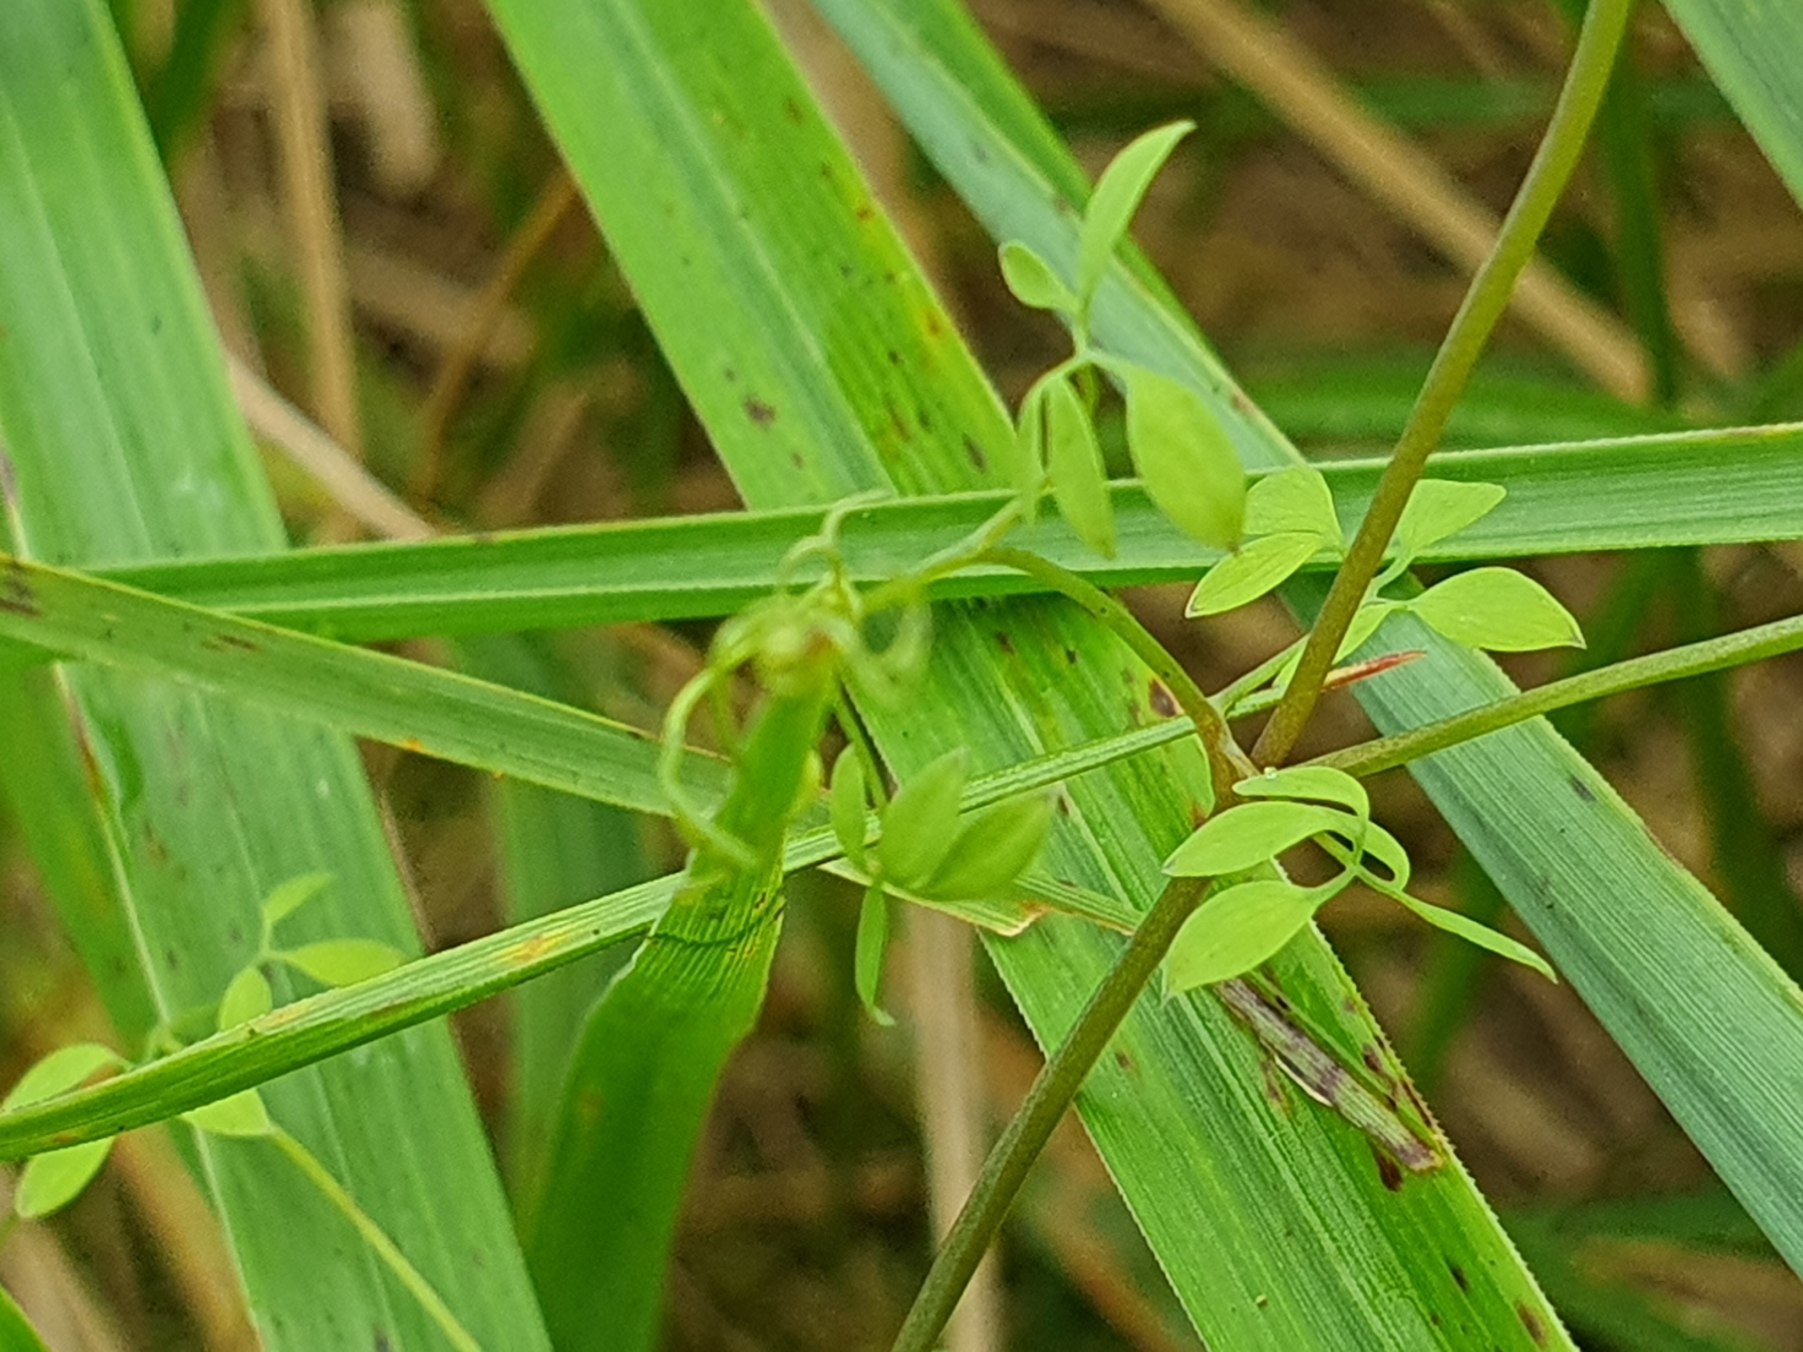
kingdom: Plantae
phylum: Tracheophyta
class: Magnoliopsida
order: Ranunculales
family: Papaveraceae
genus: Ceratocapnos
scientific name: Ceratocapnos claviculata
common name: Klatrende lærkespore
